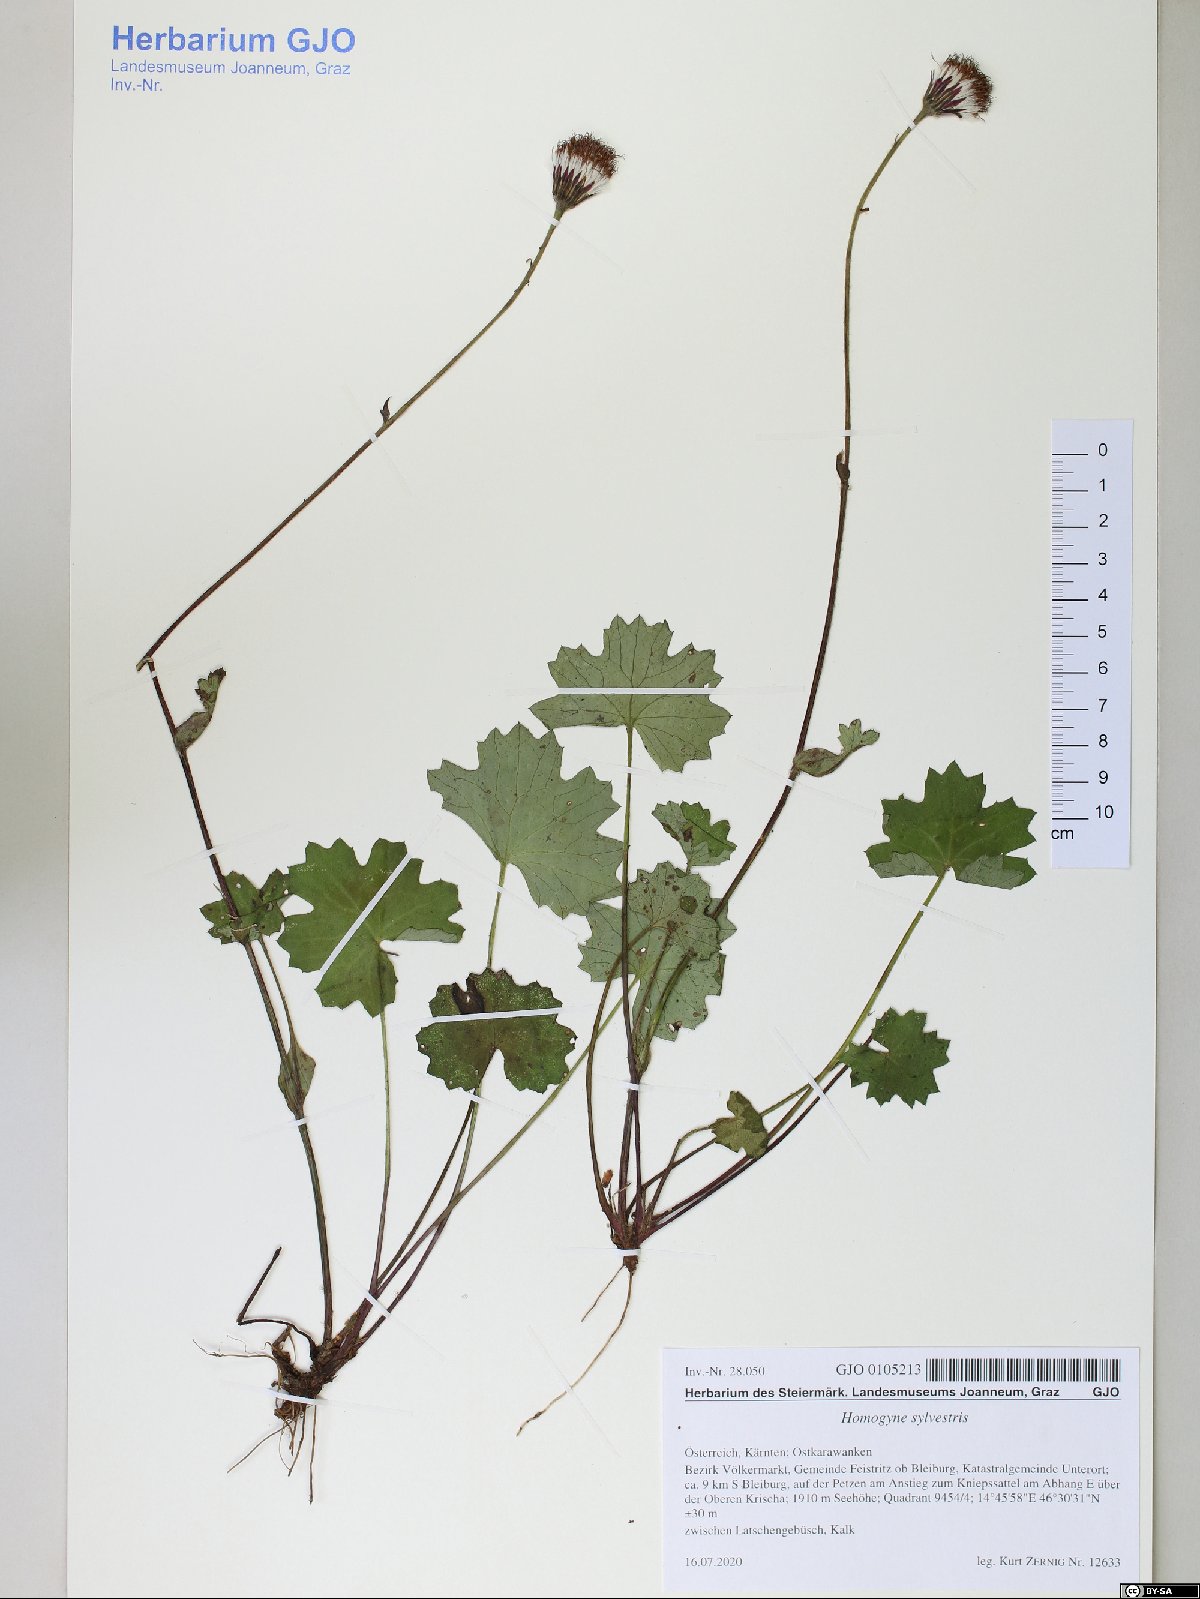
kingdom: Plantae
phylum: Tracheophyta
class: Magnoliopsida
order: Asterales
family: Asteraceae
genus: Homogyne
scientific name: Homogyne sylvestris
